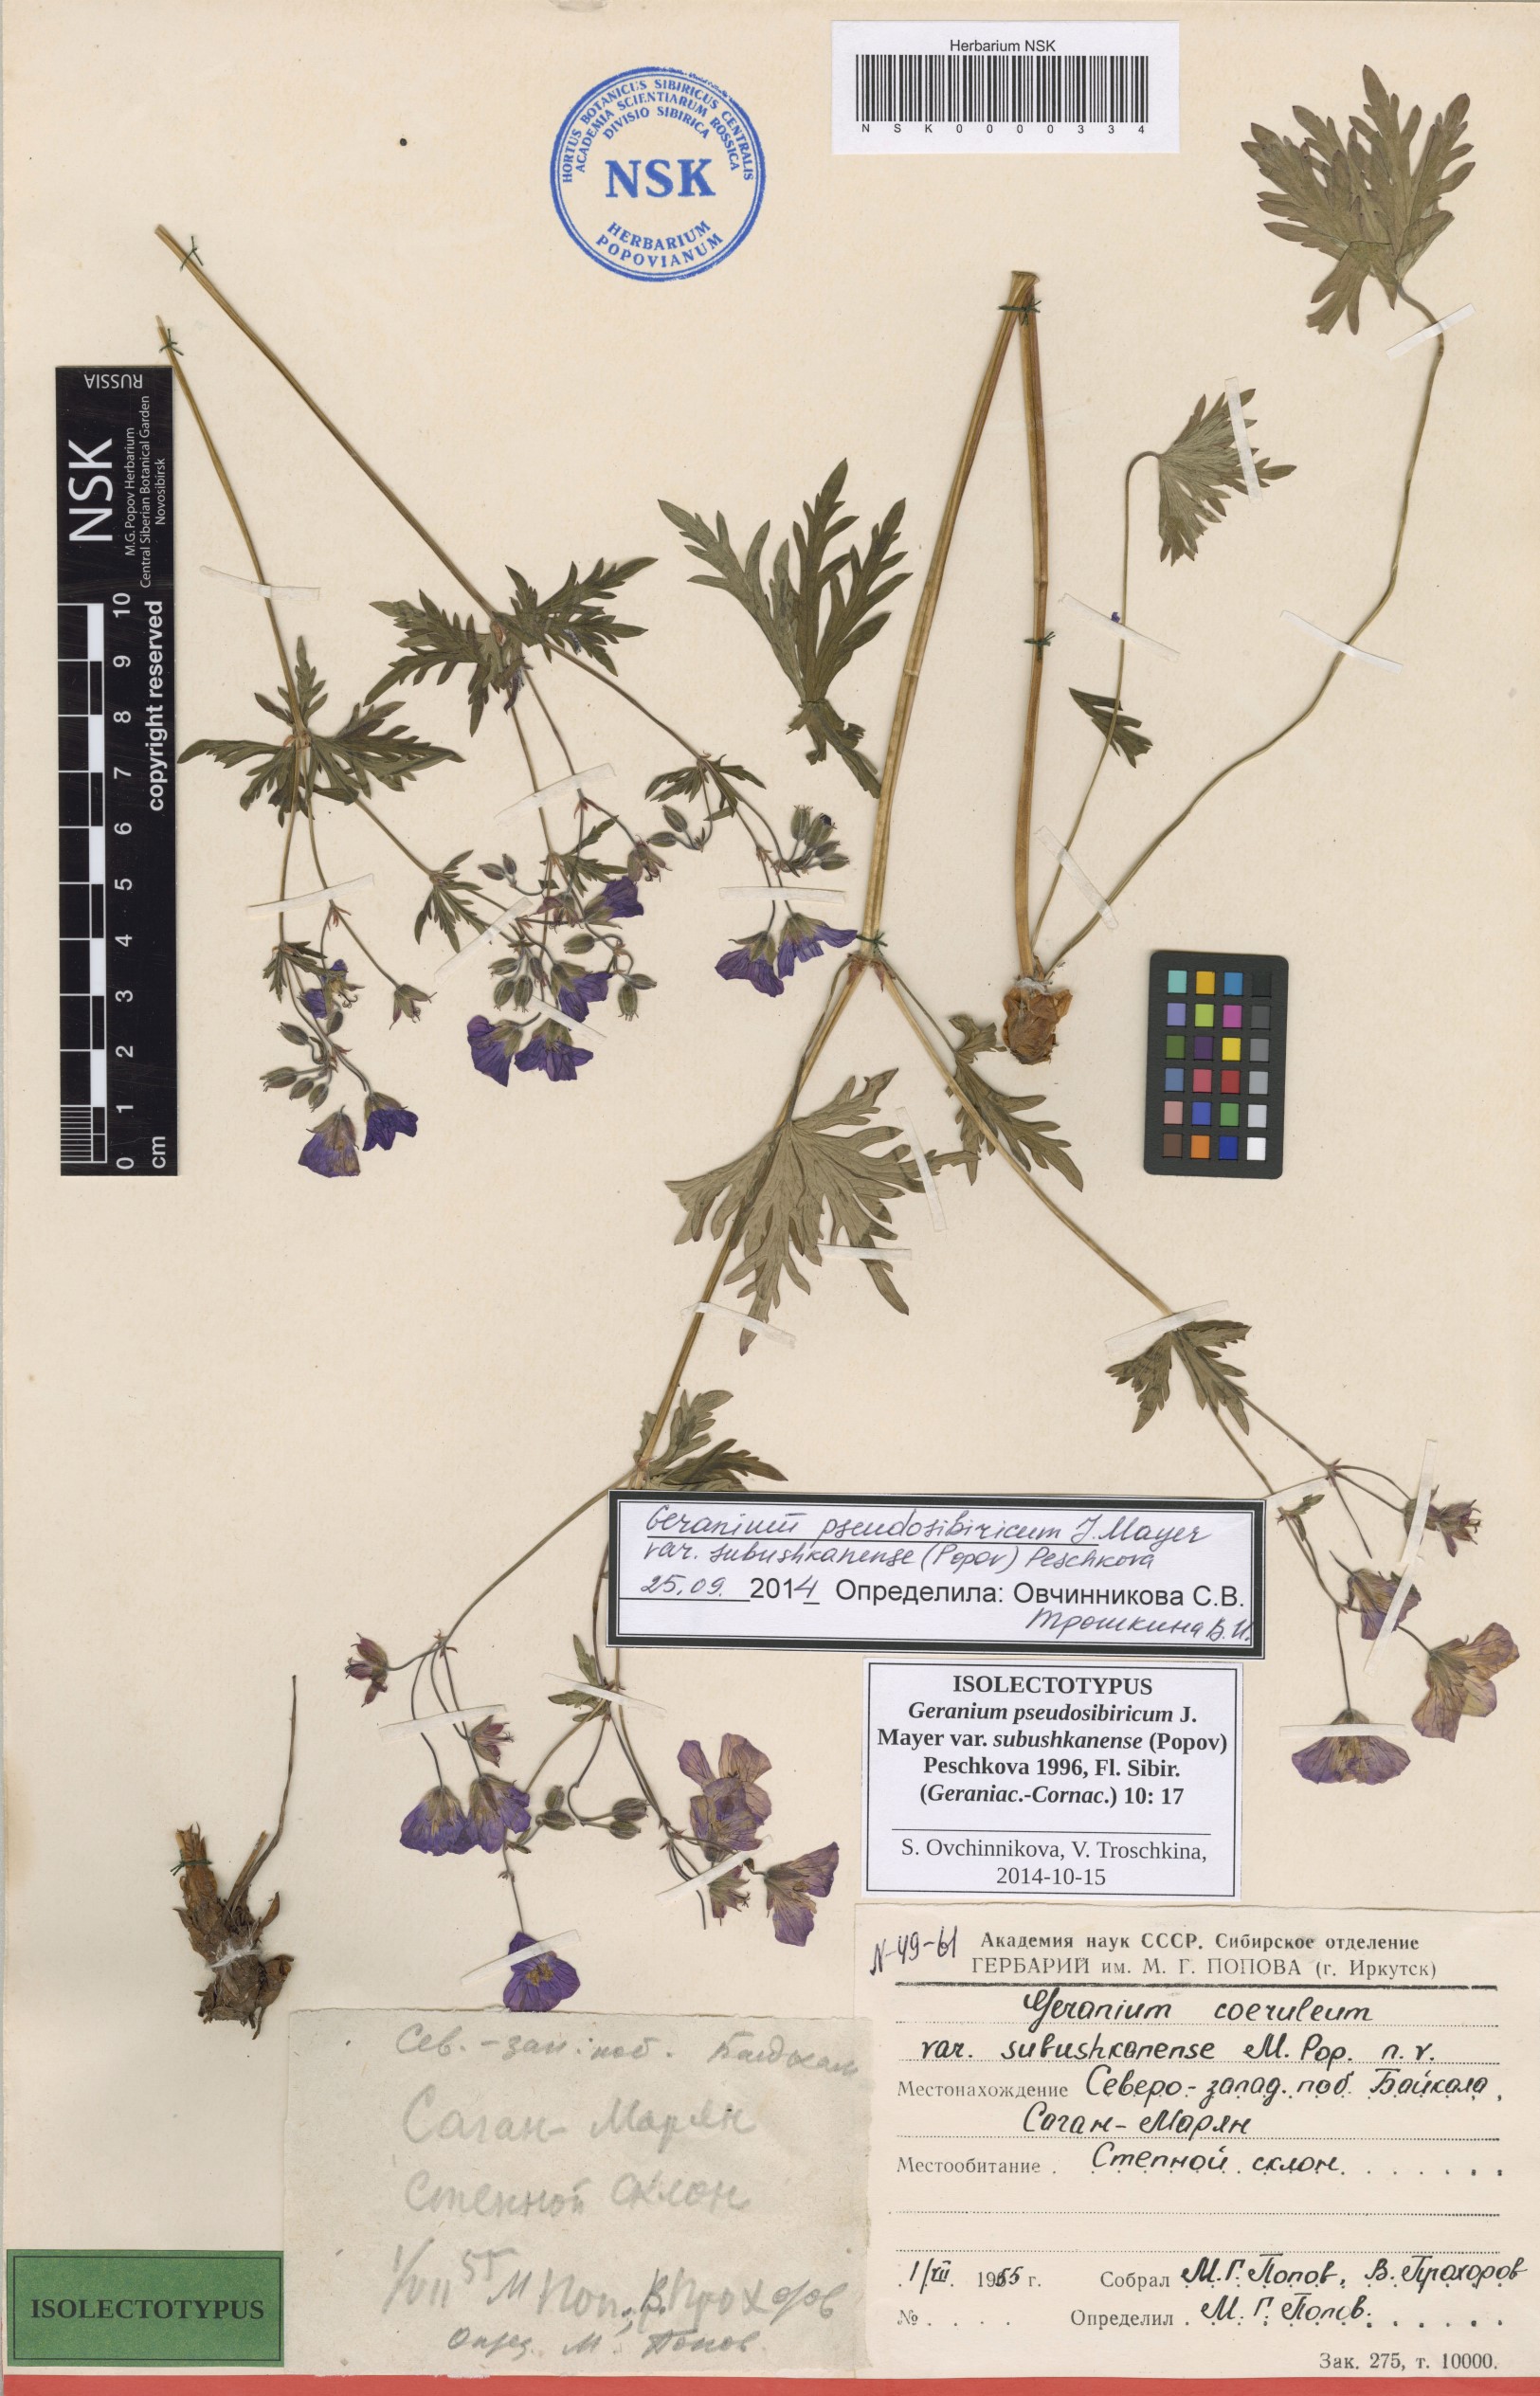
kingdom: Plantae
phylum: Tracheophyta
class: Magnoliopsida
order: Geraniales
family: Geraniaceae
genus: Geranium
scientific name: Geranium pseudosibiricum
